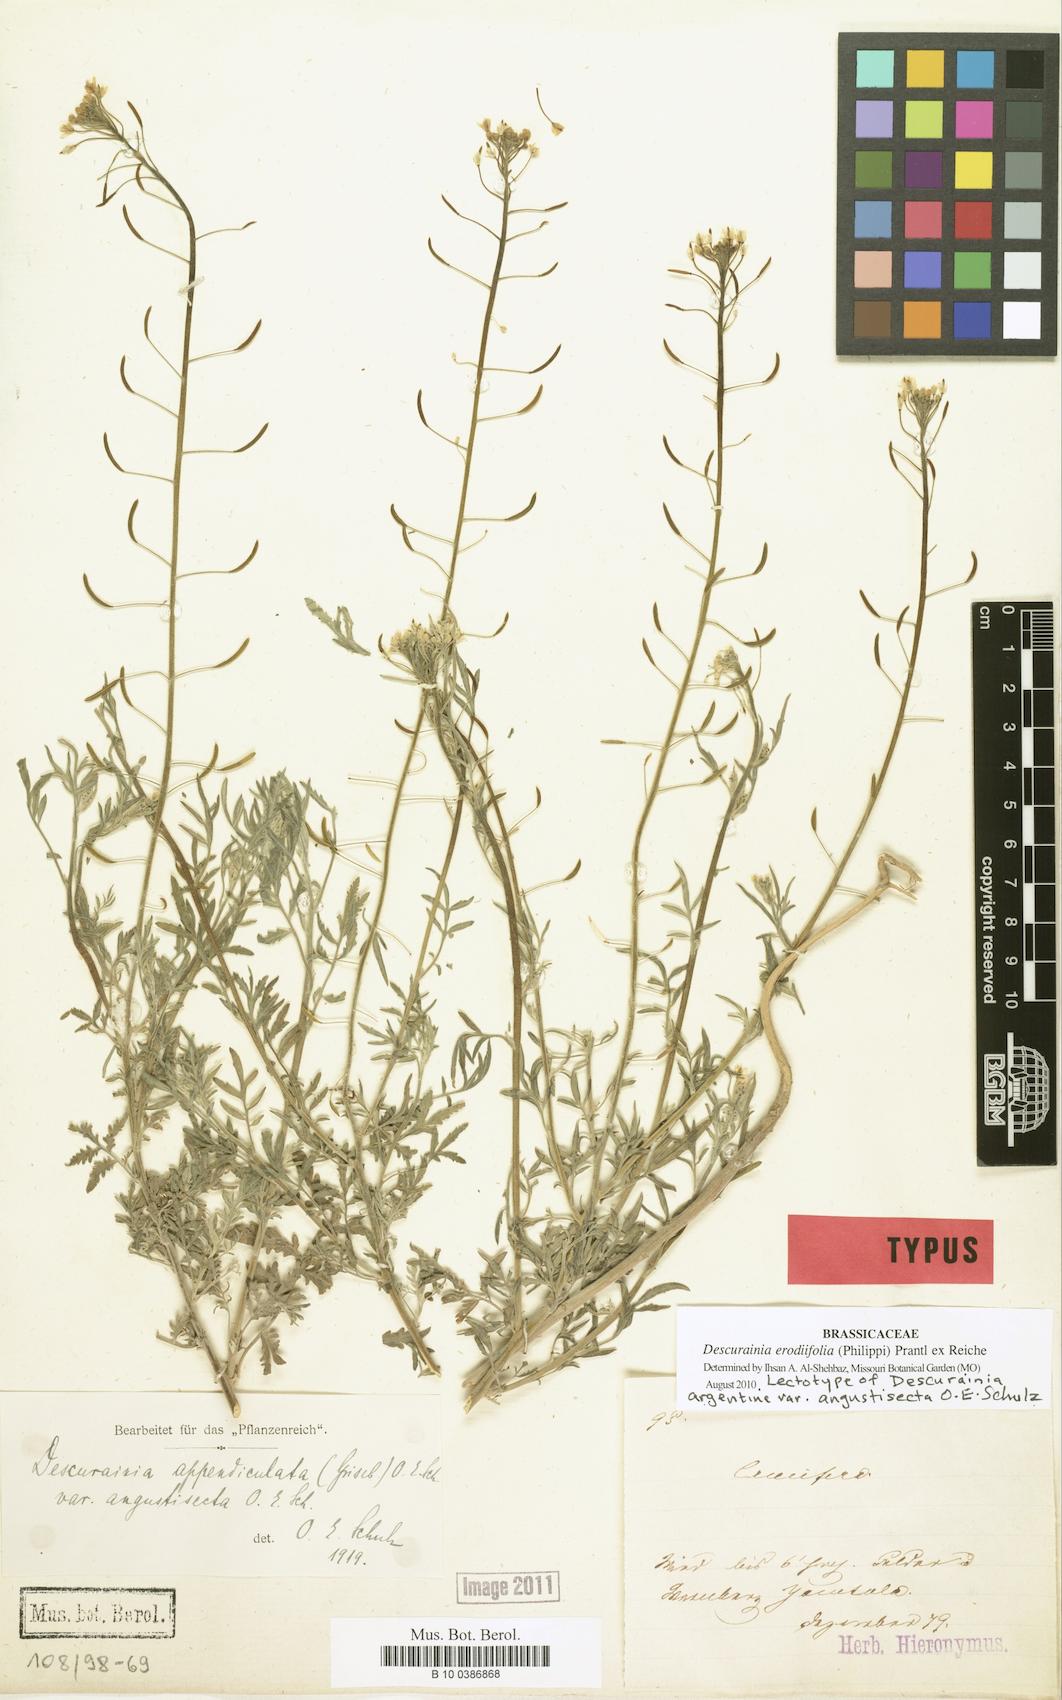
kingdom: Plantae
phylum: Tracheophyta
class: Magnoliopsida
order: Brassicales
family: Brassicaceae
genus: Descurainia
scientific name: Descurainia erodiifolia
